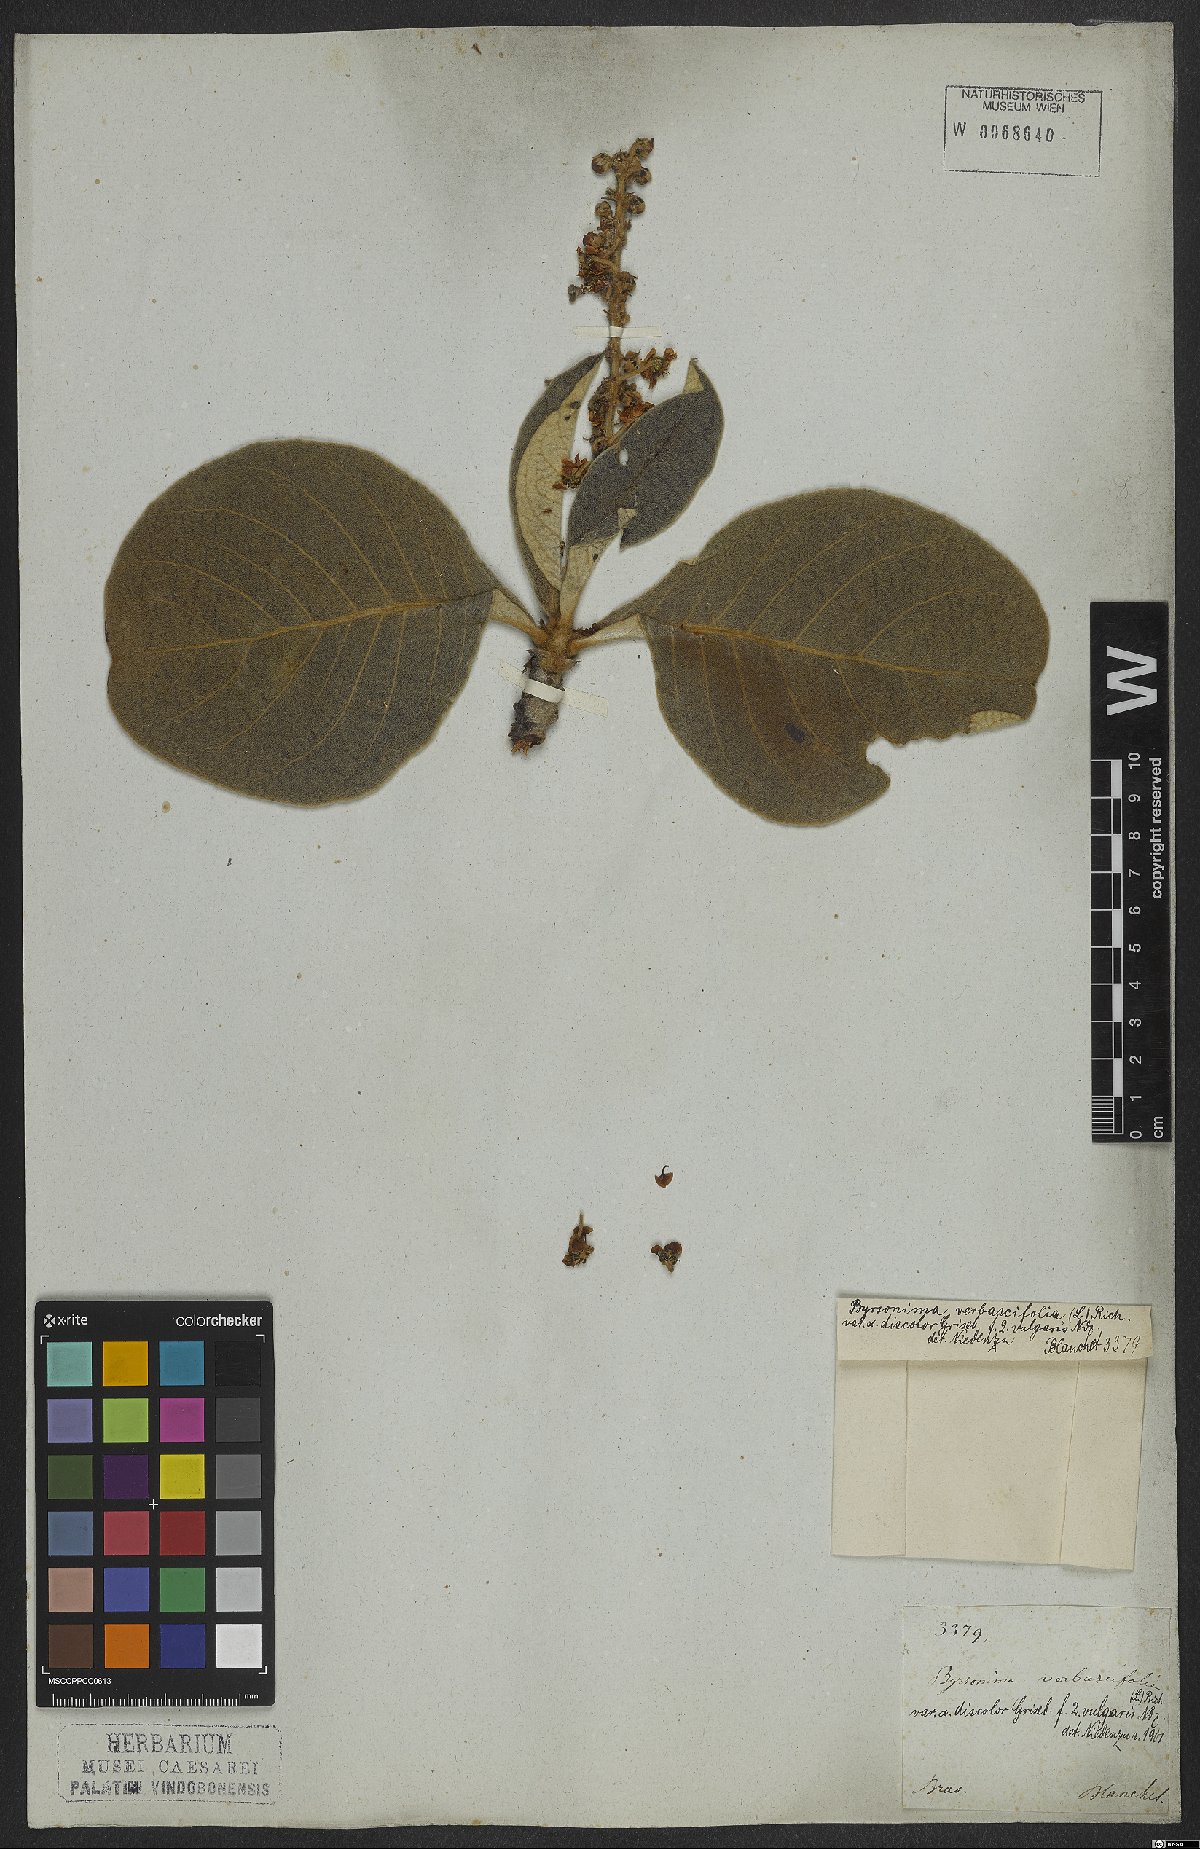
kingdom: Plantae
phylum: Tracheophyta
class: Magnoliopsida
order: Malpighiales
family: Malpighiaceae
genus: Byrsonima
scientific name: Byrsonima verbascifolia
